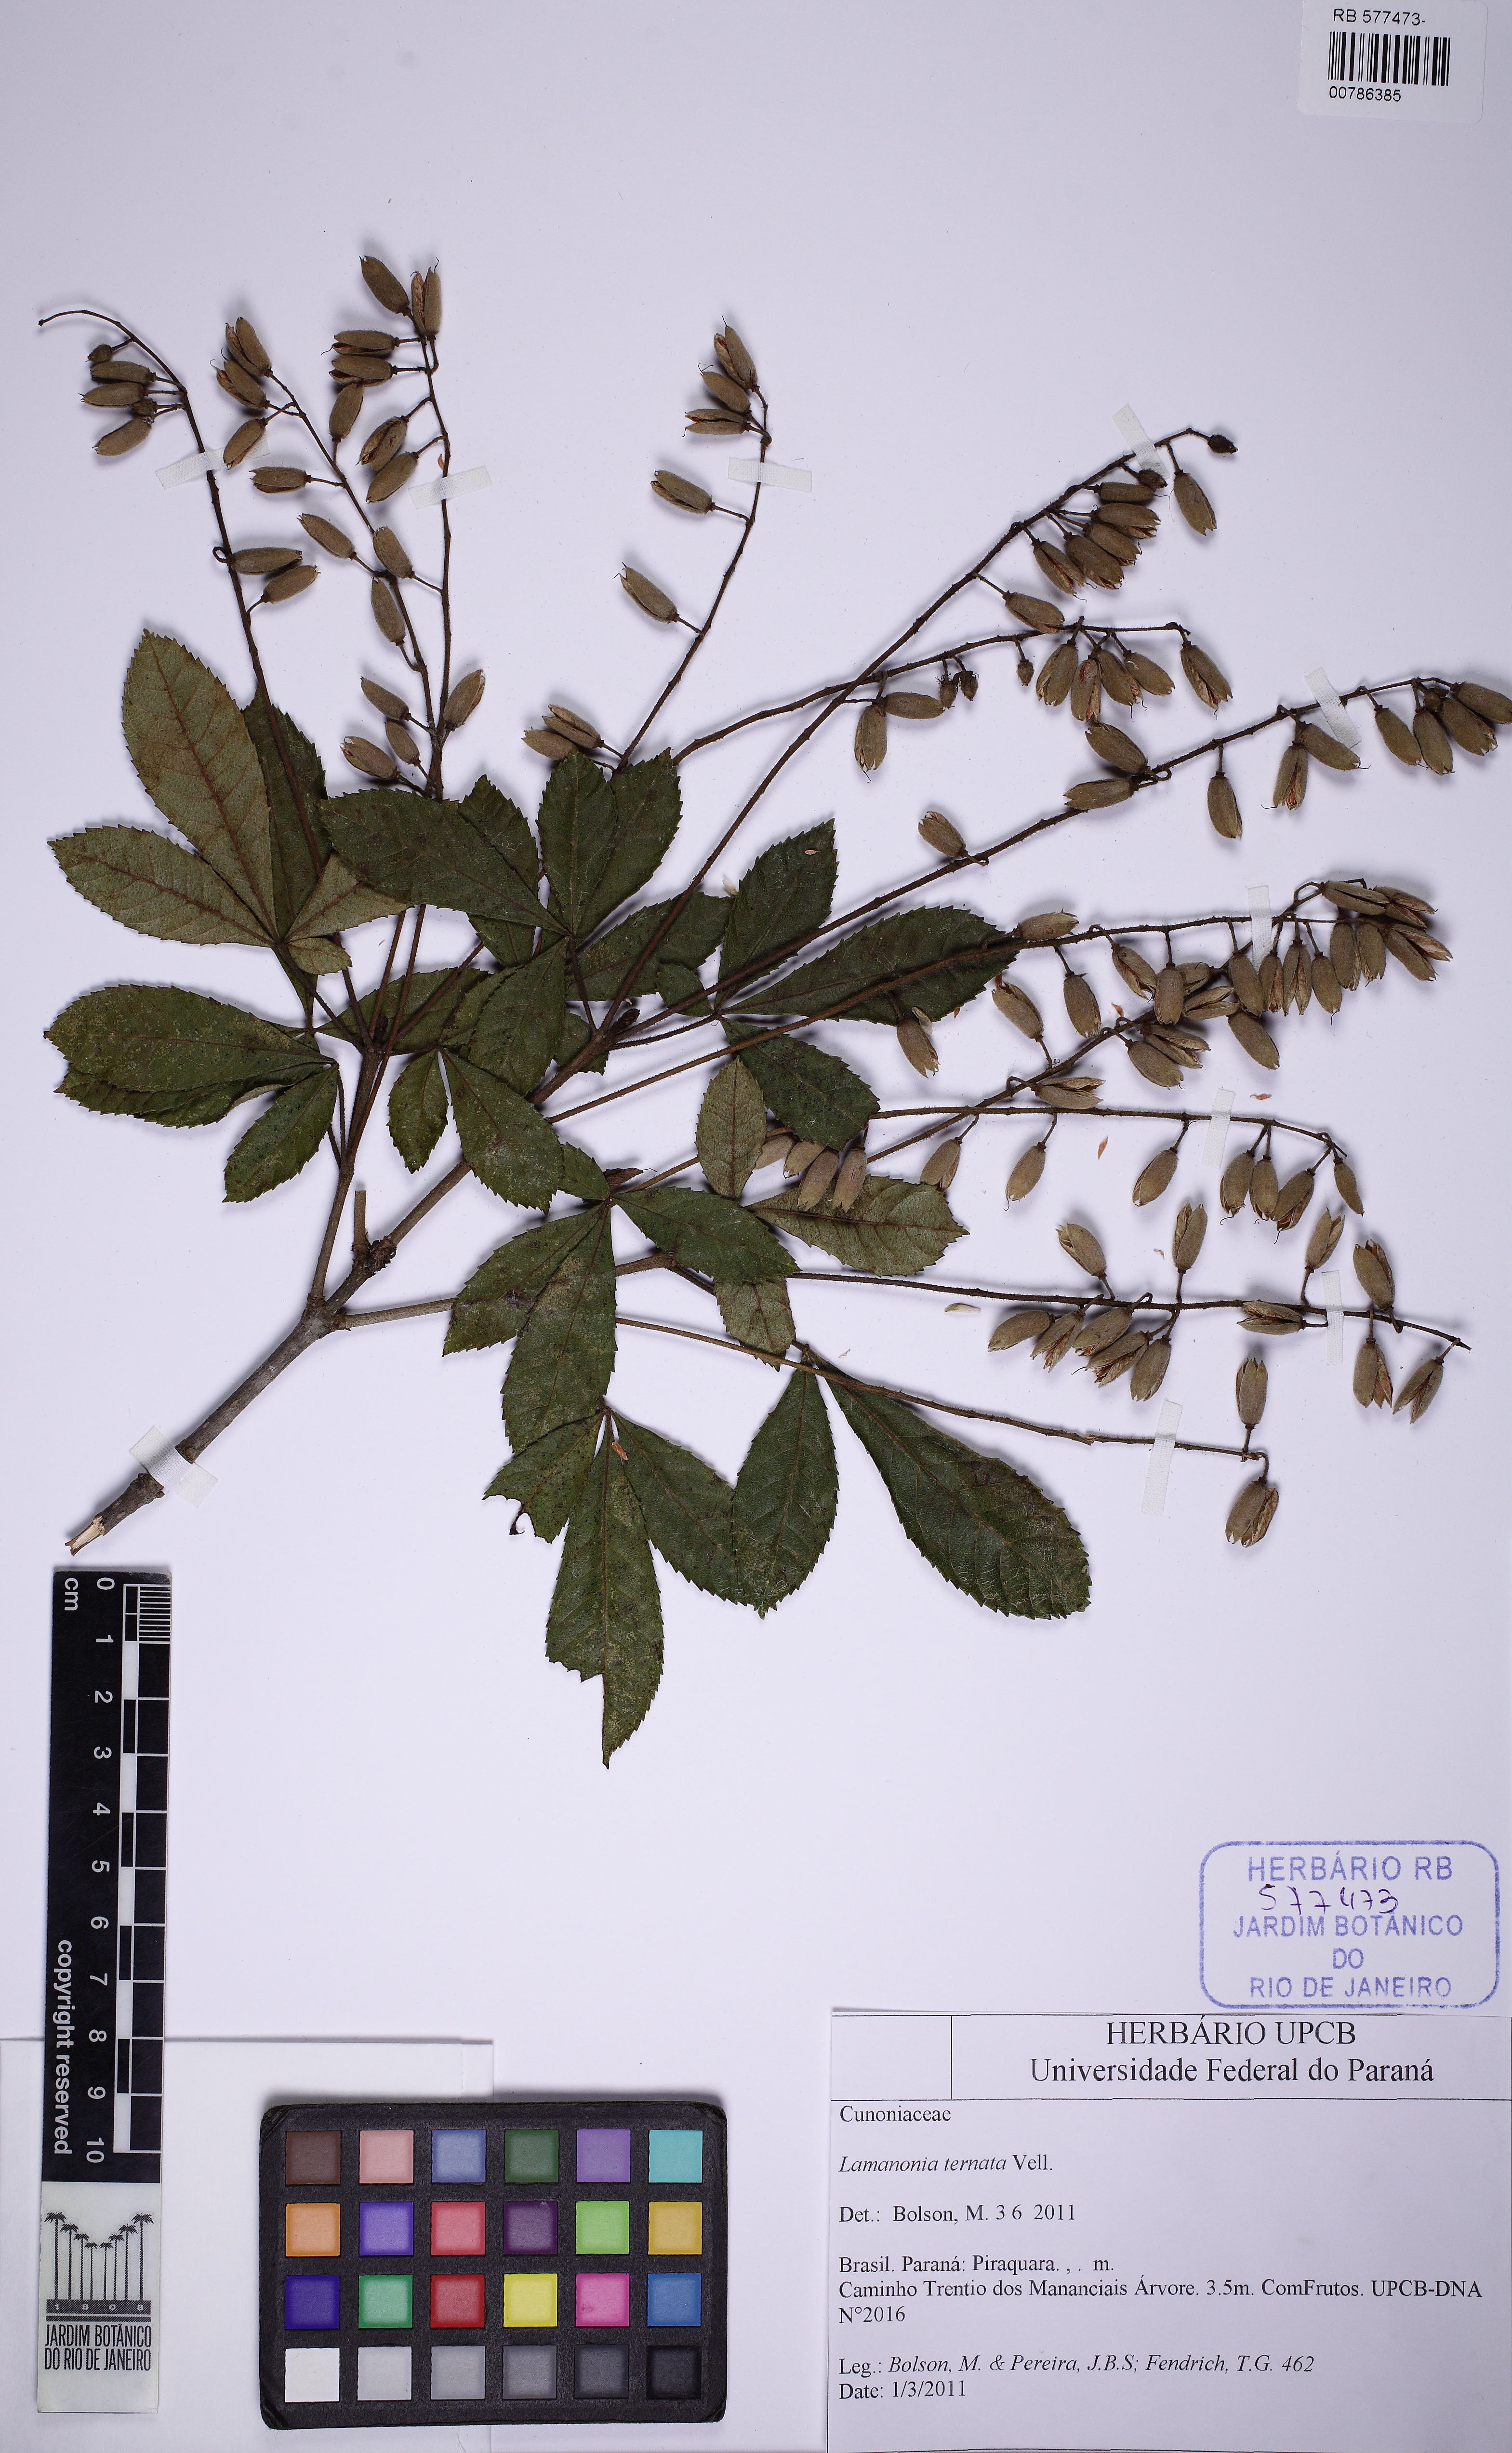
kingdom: Plantae
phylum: Tracheophyta
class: Magnoliopsida
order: Oxalidales
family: Cunoniaceae
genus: Lamanonia
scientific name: Lamanonia ternata
